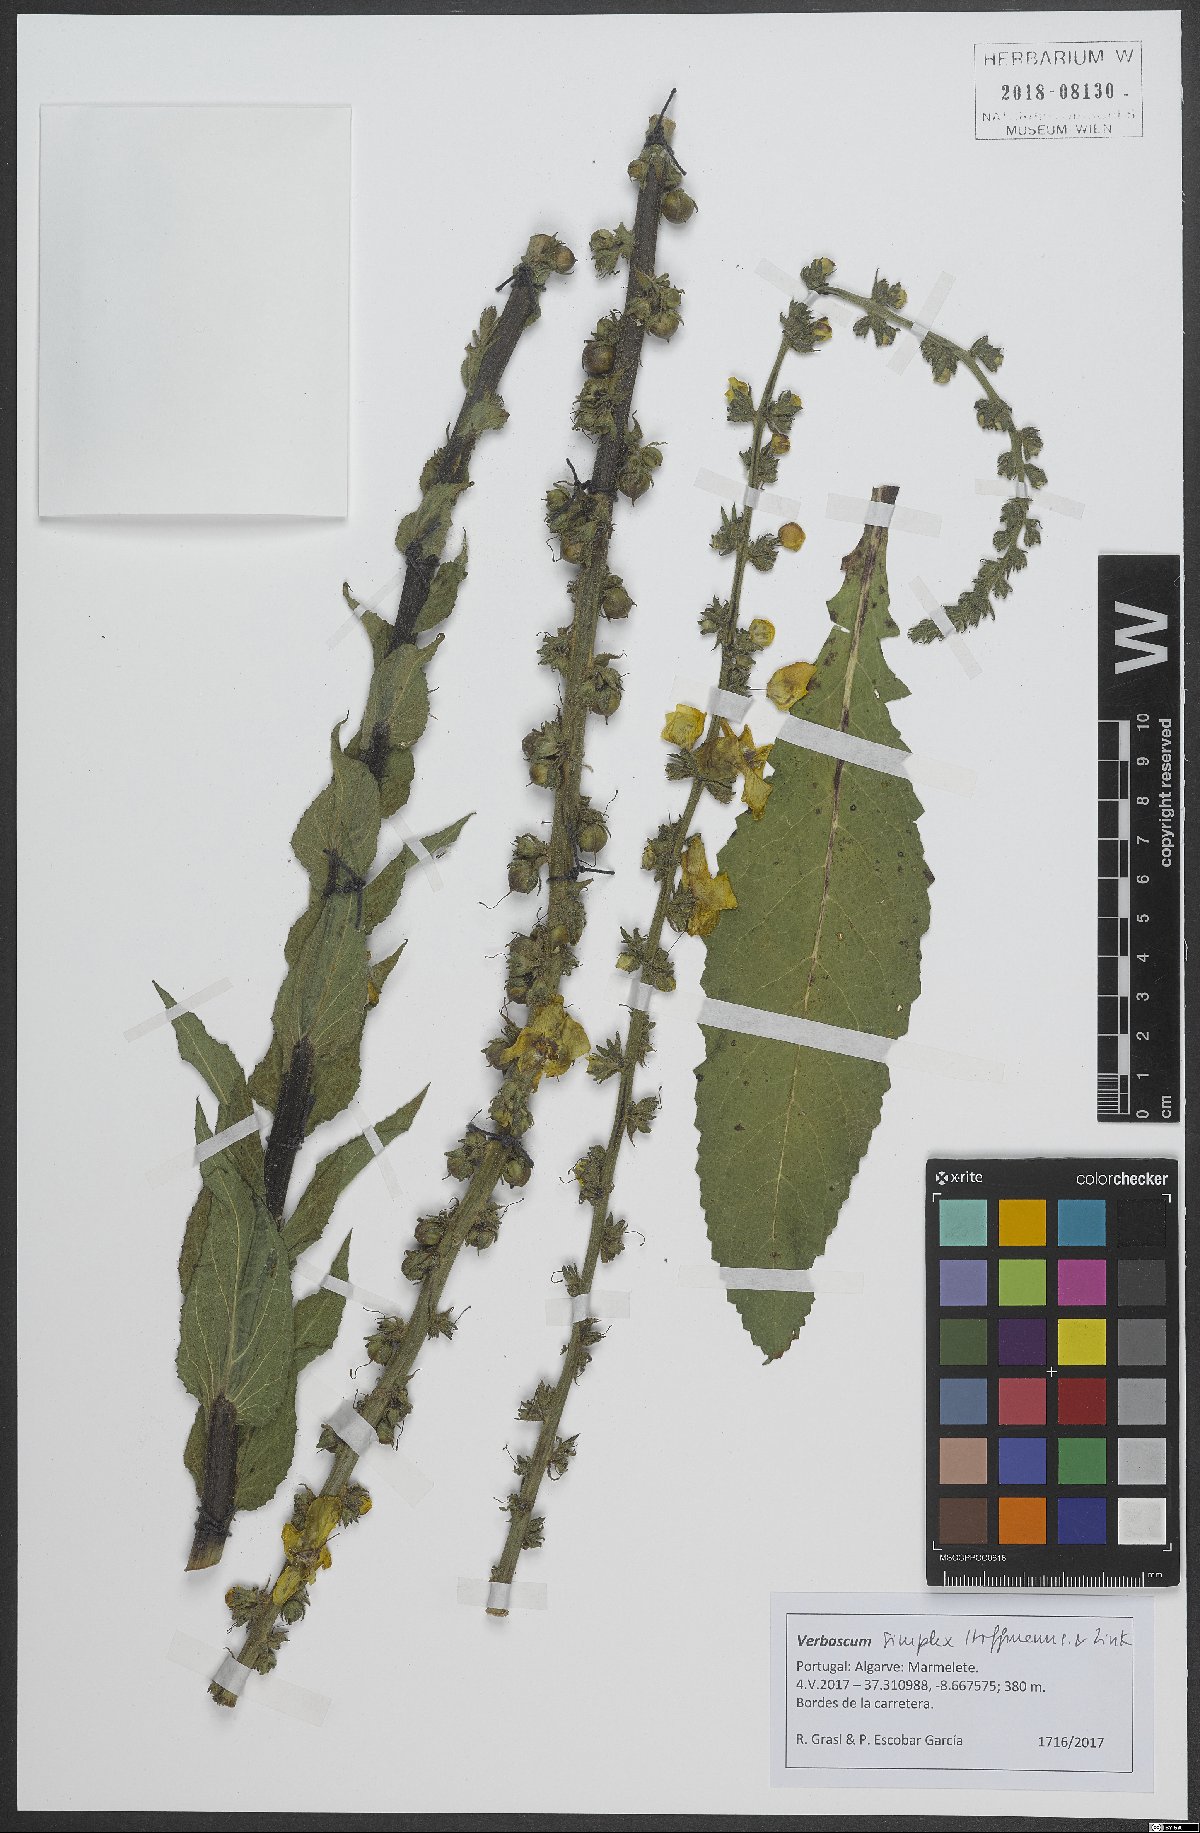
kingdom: Plantae
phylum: Tracheophyta
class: Magnoliopsida
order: Lamiales
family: Scrophulariaceae
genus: Verbascum
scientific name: Verbascum simplex
